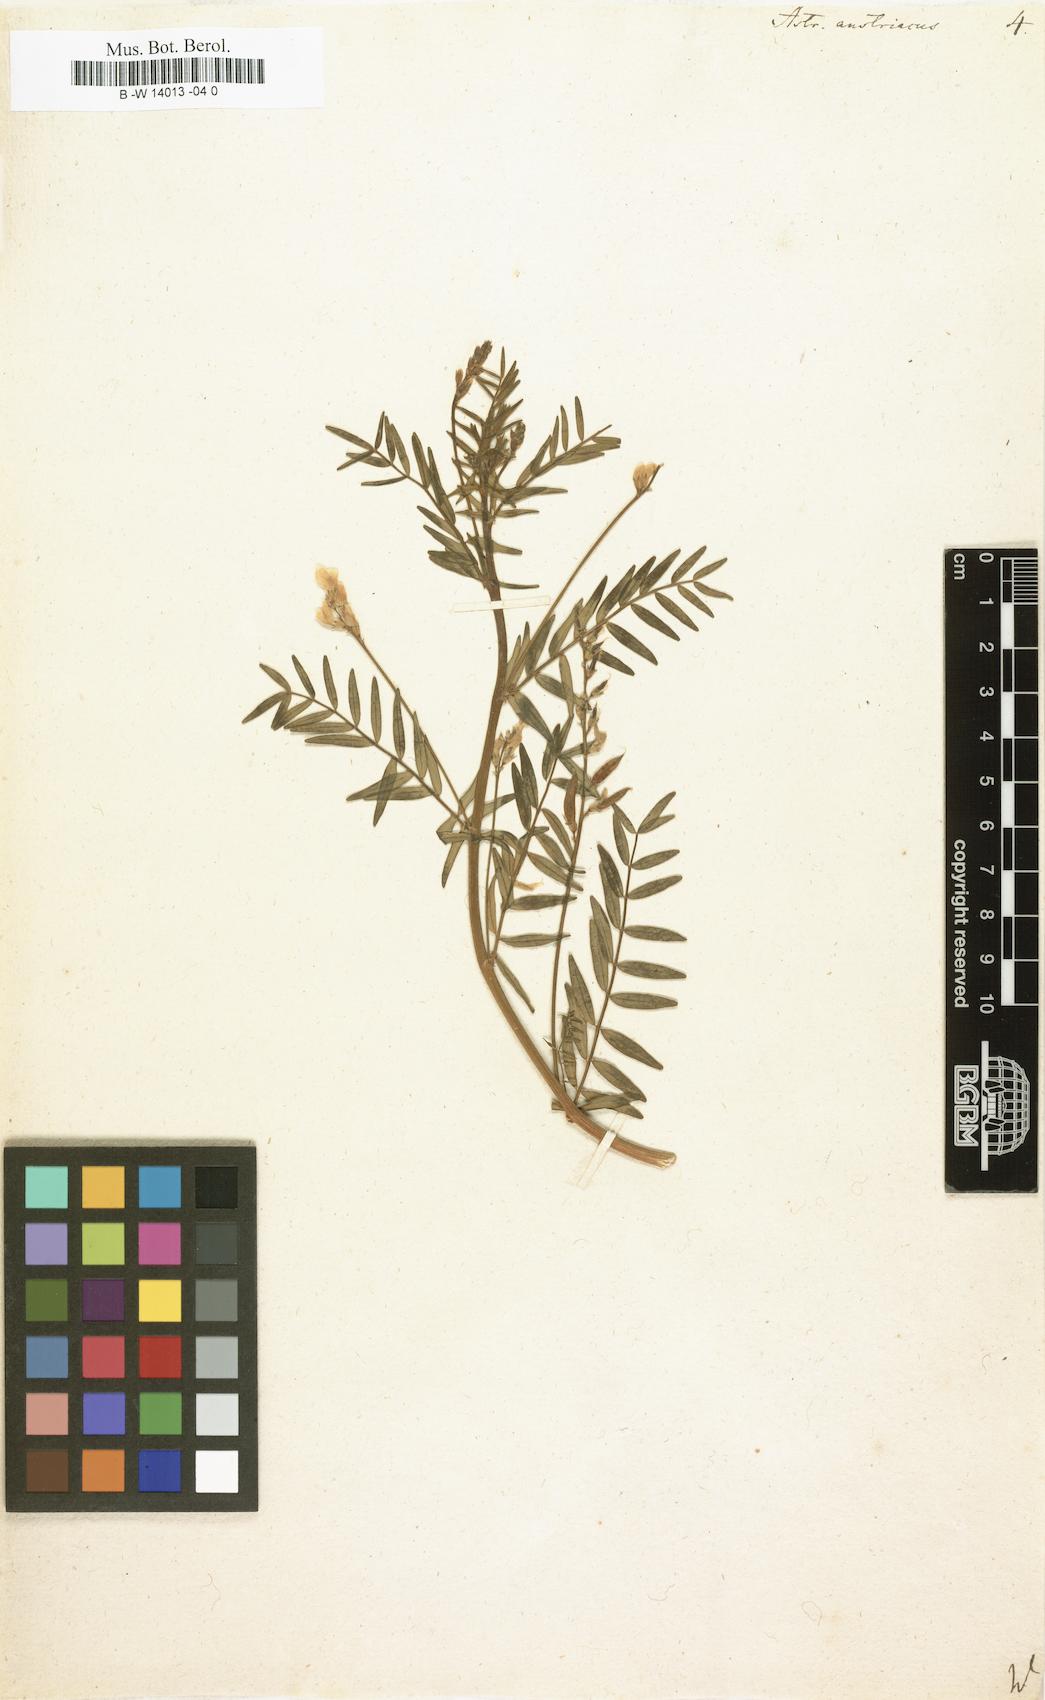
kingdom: Plantae
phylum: Tracheophyta
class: Magnoliopsida
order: Fabales
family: Fabaceae
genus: Astragalus
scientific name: Astragalus austriacus
